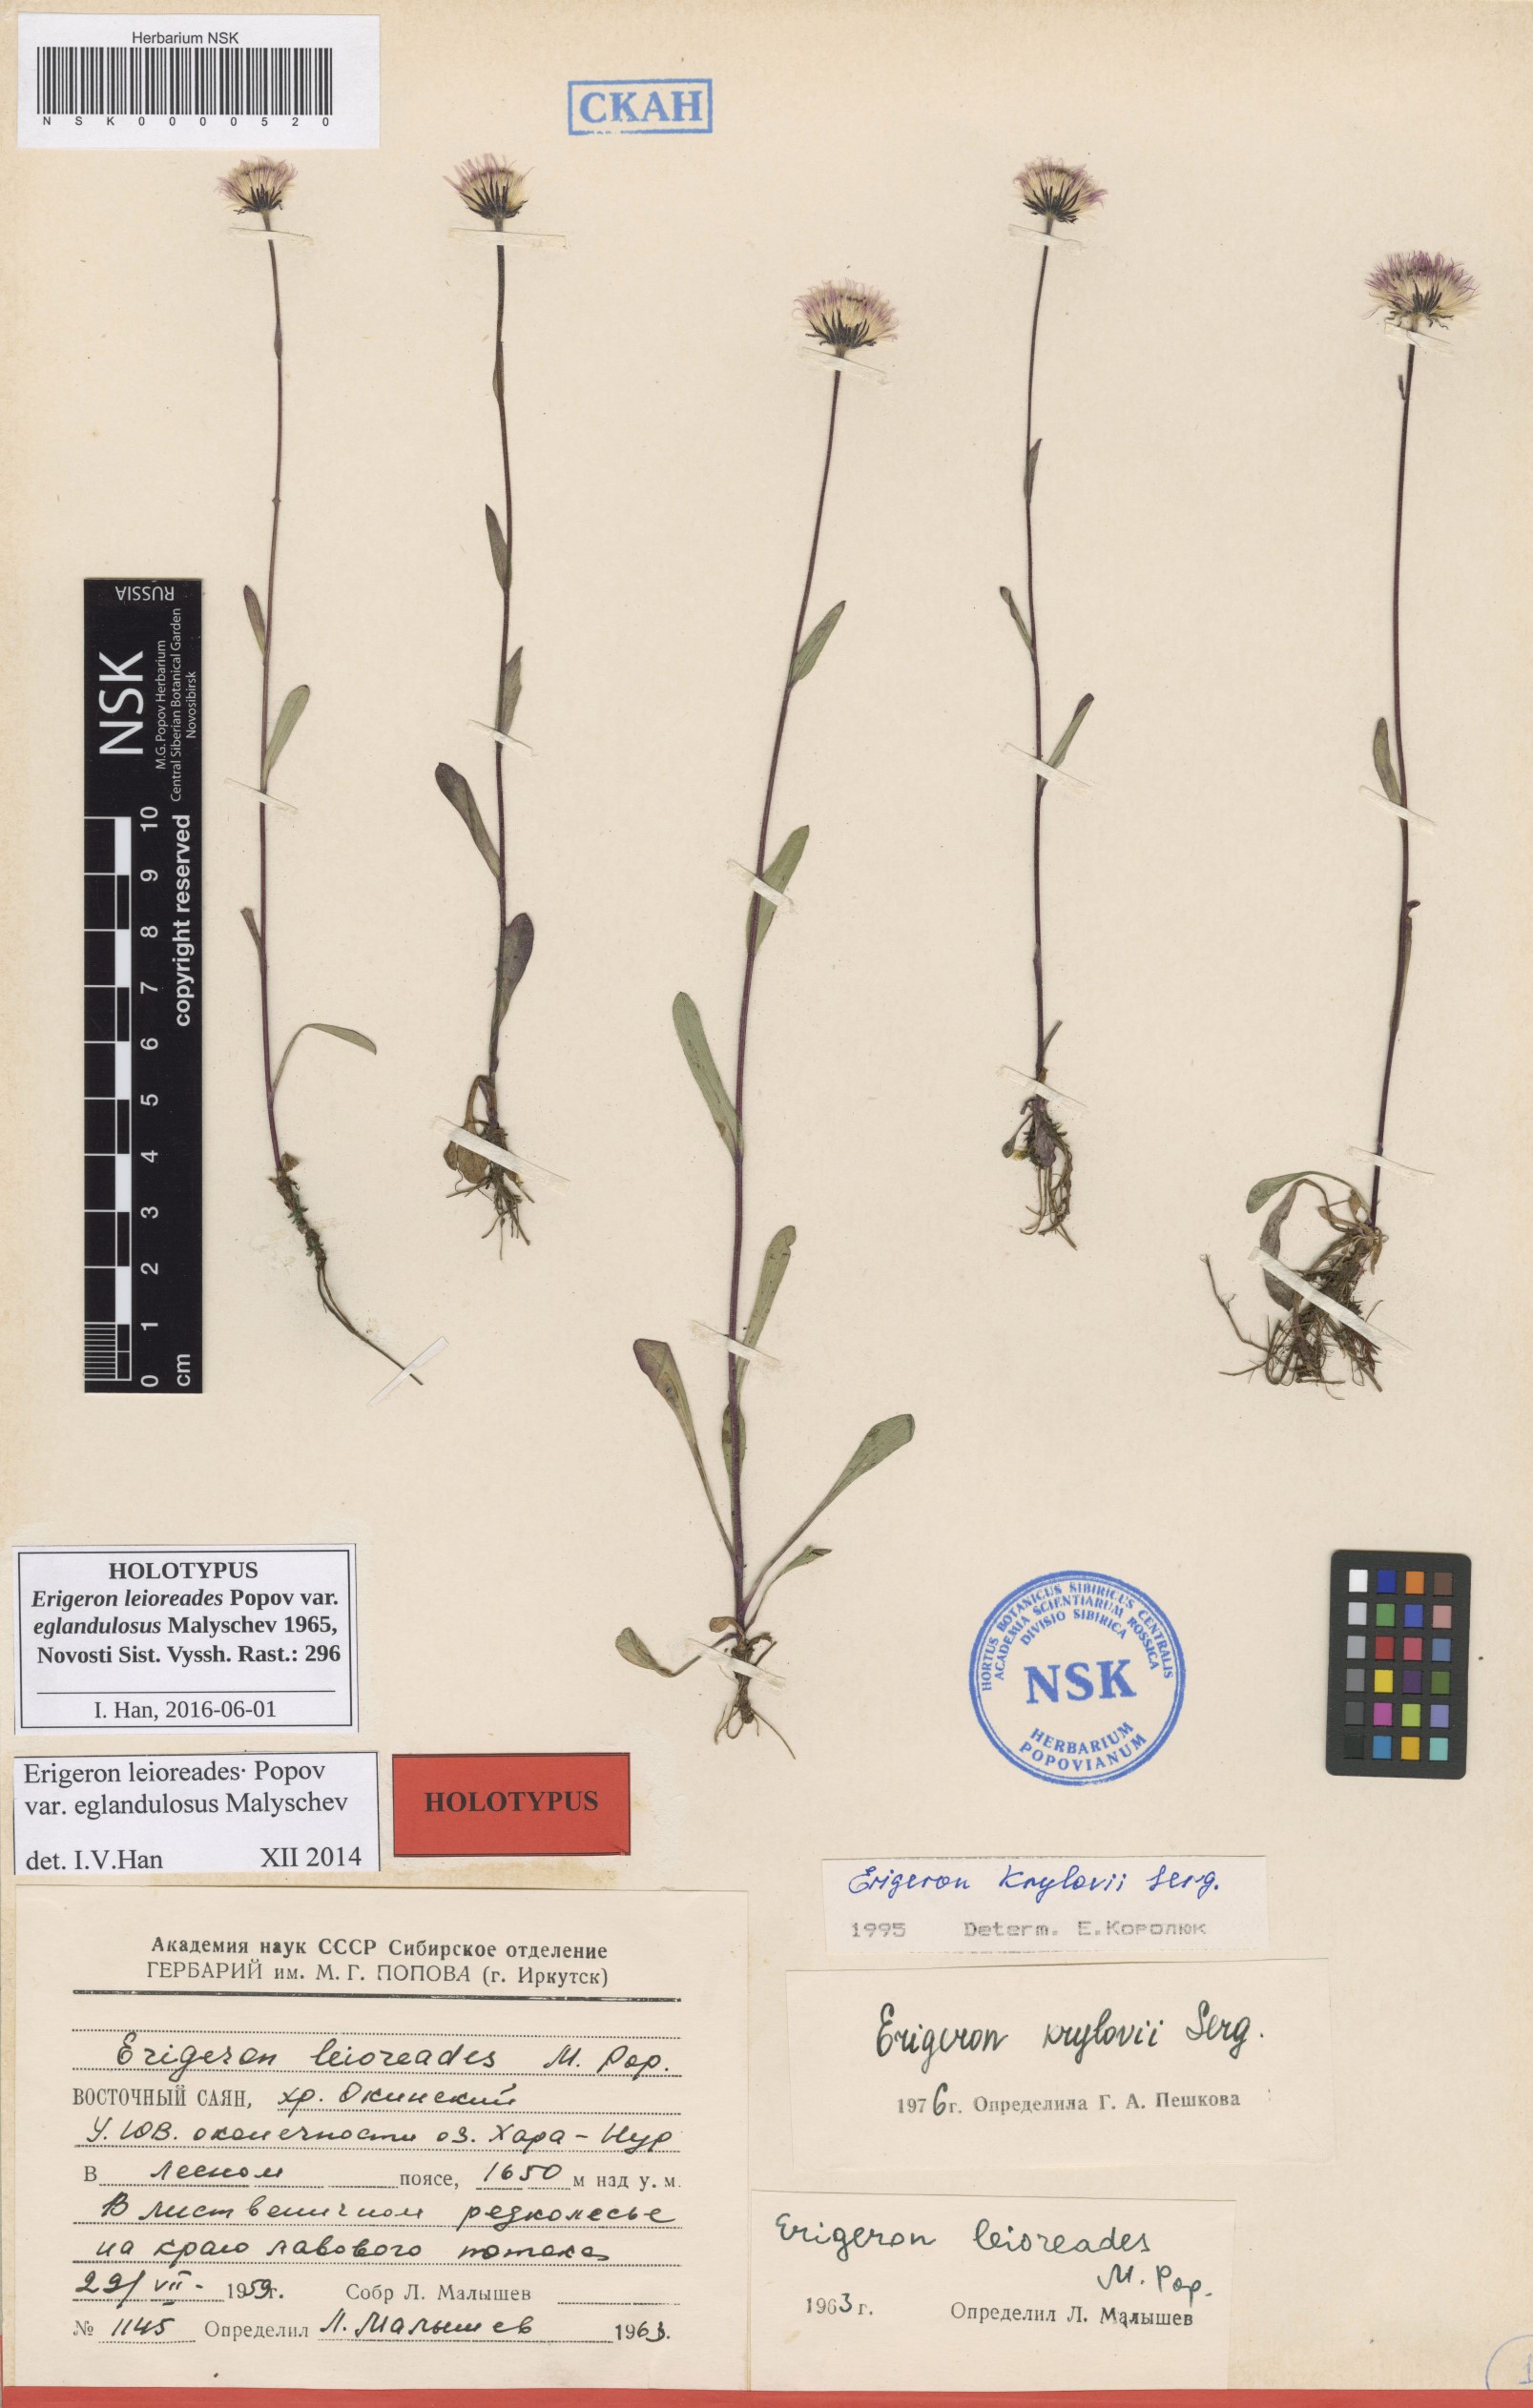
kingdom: Plantae
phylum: Tracheophyta
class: Magnoliopsida
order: Asterales
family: Asteraceae
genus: Erigeron
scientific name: Erigeron leioreades
